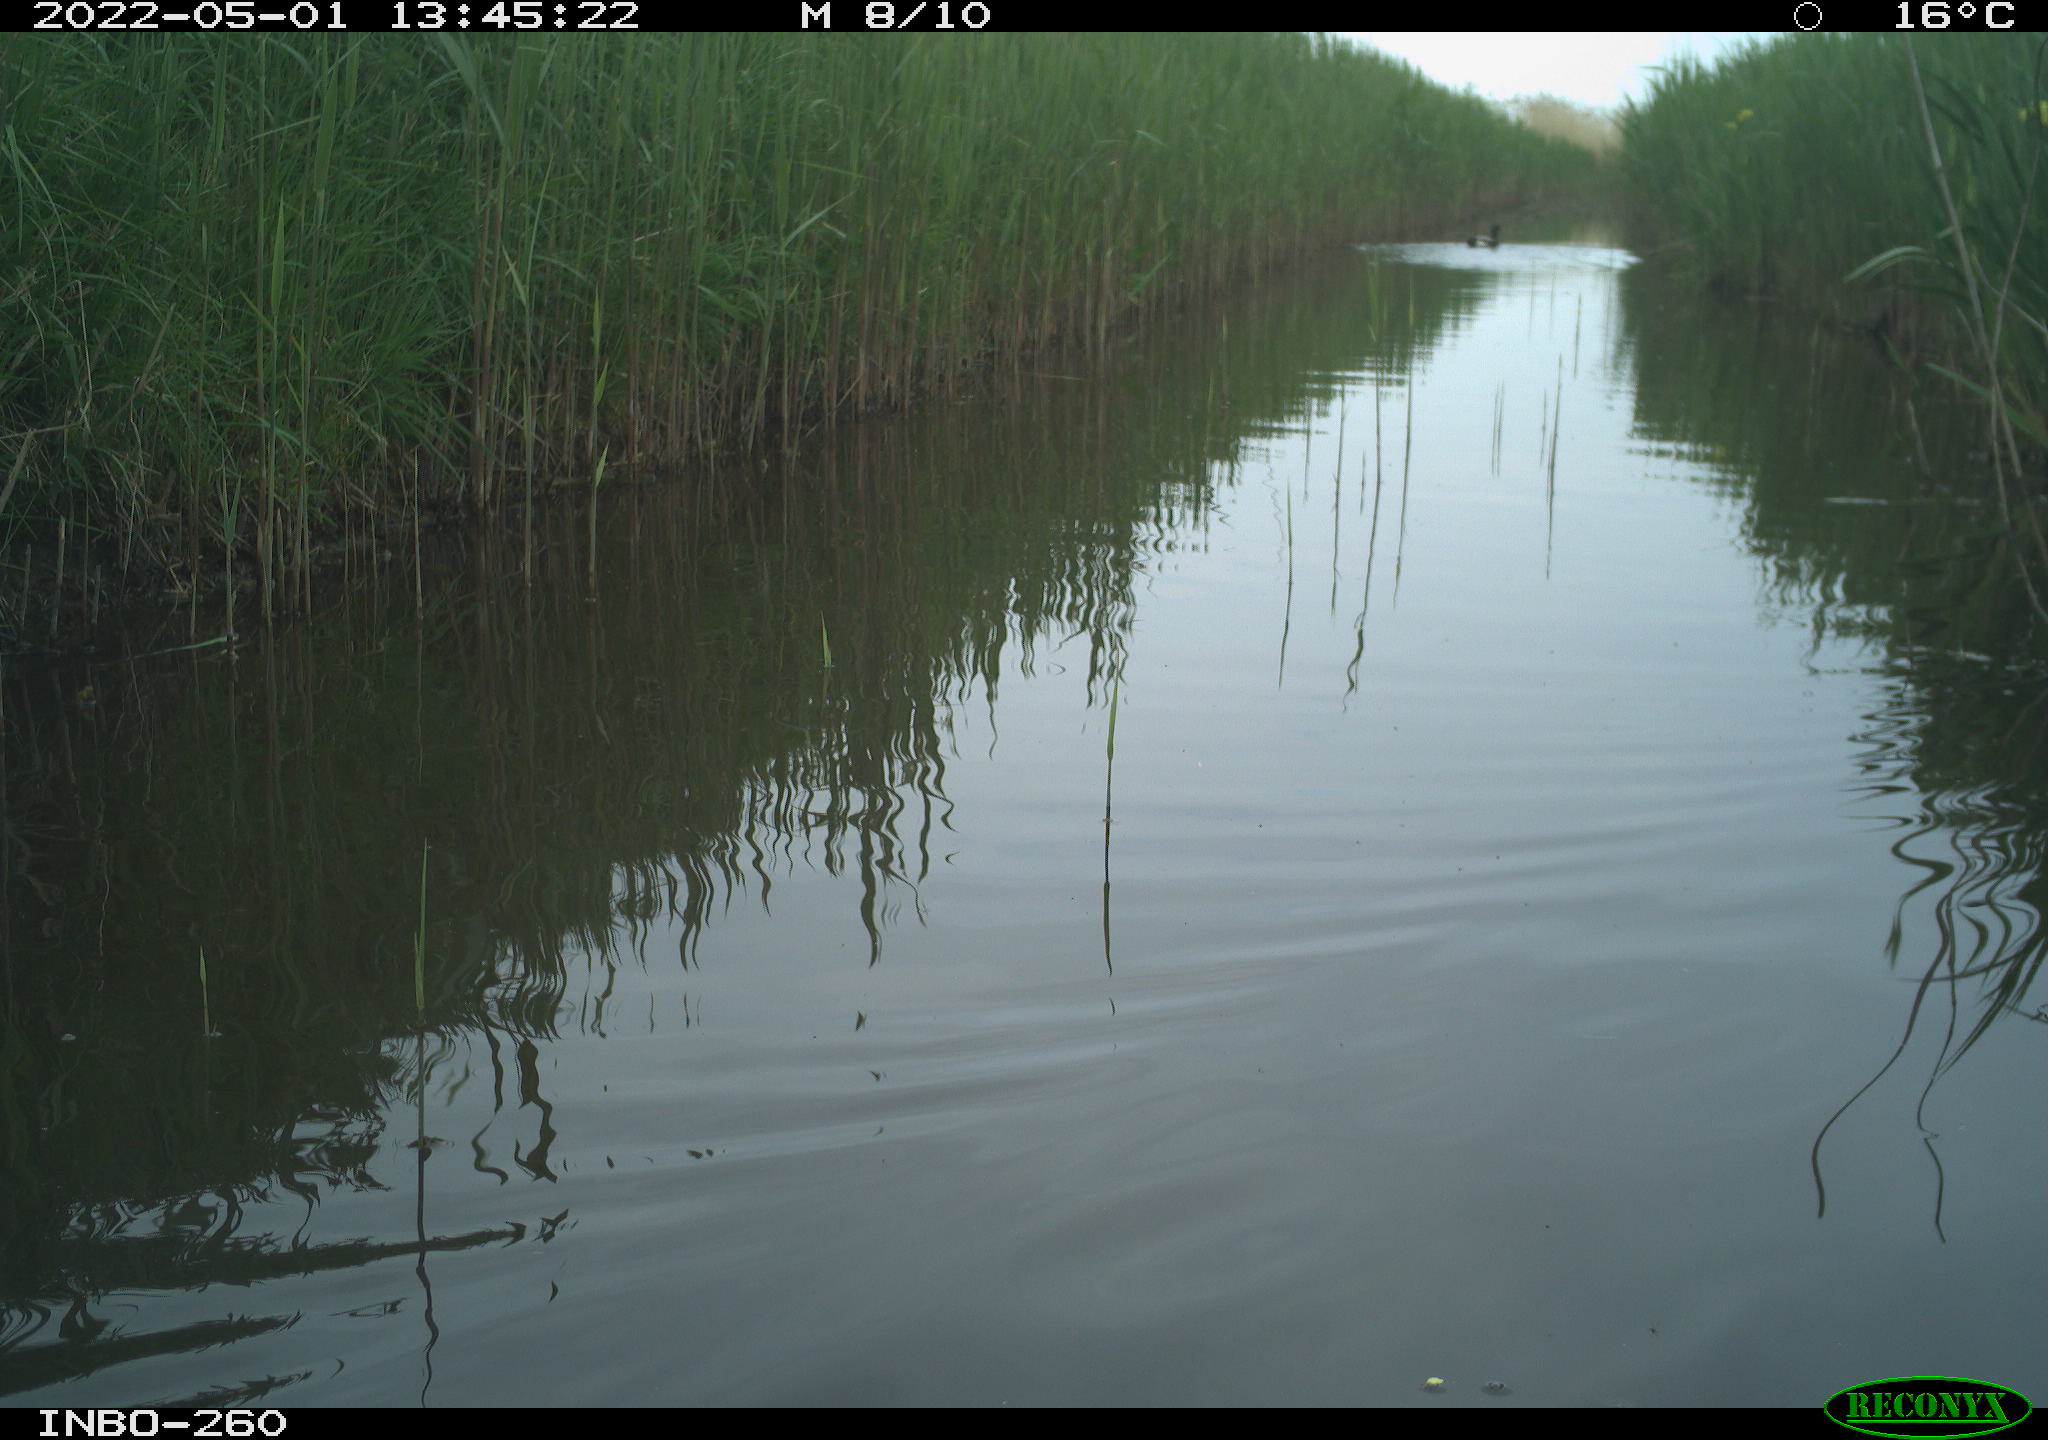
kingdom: Animalia
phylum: Chordata
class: Aves
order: Anseriformes
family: Anatidae
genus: Anas
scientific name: Anas platyrhynchos
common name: Mallard
